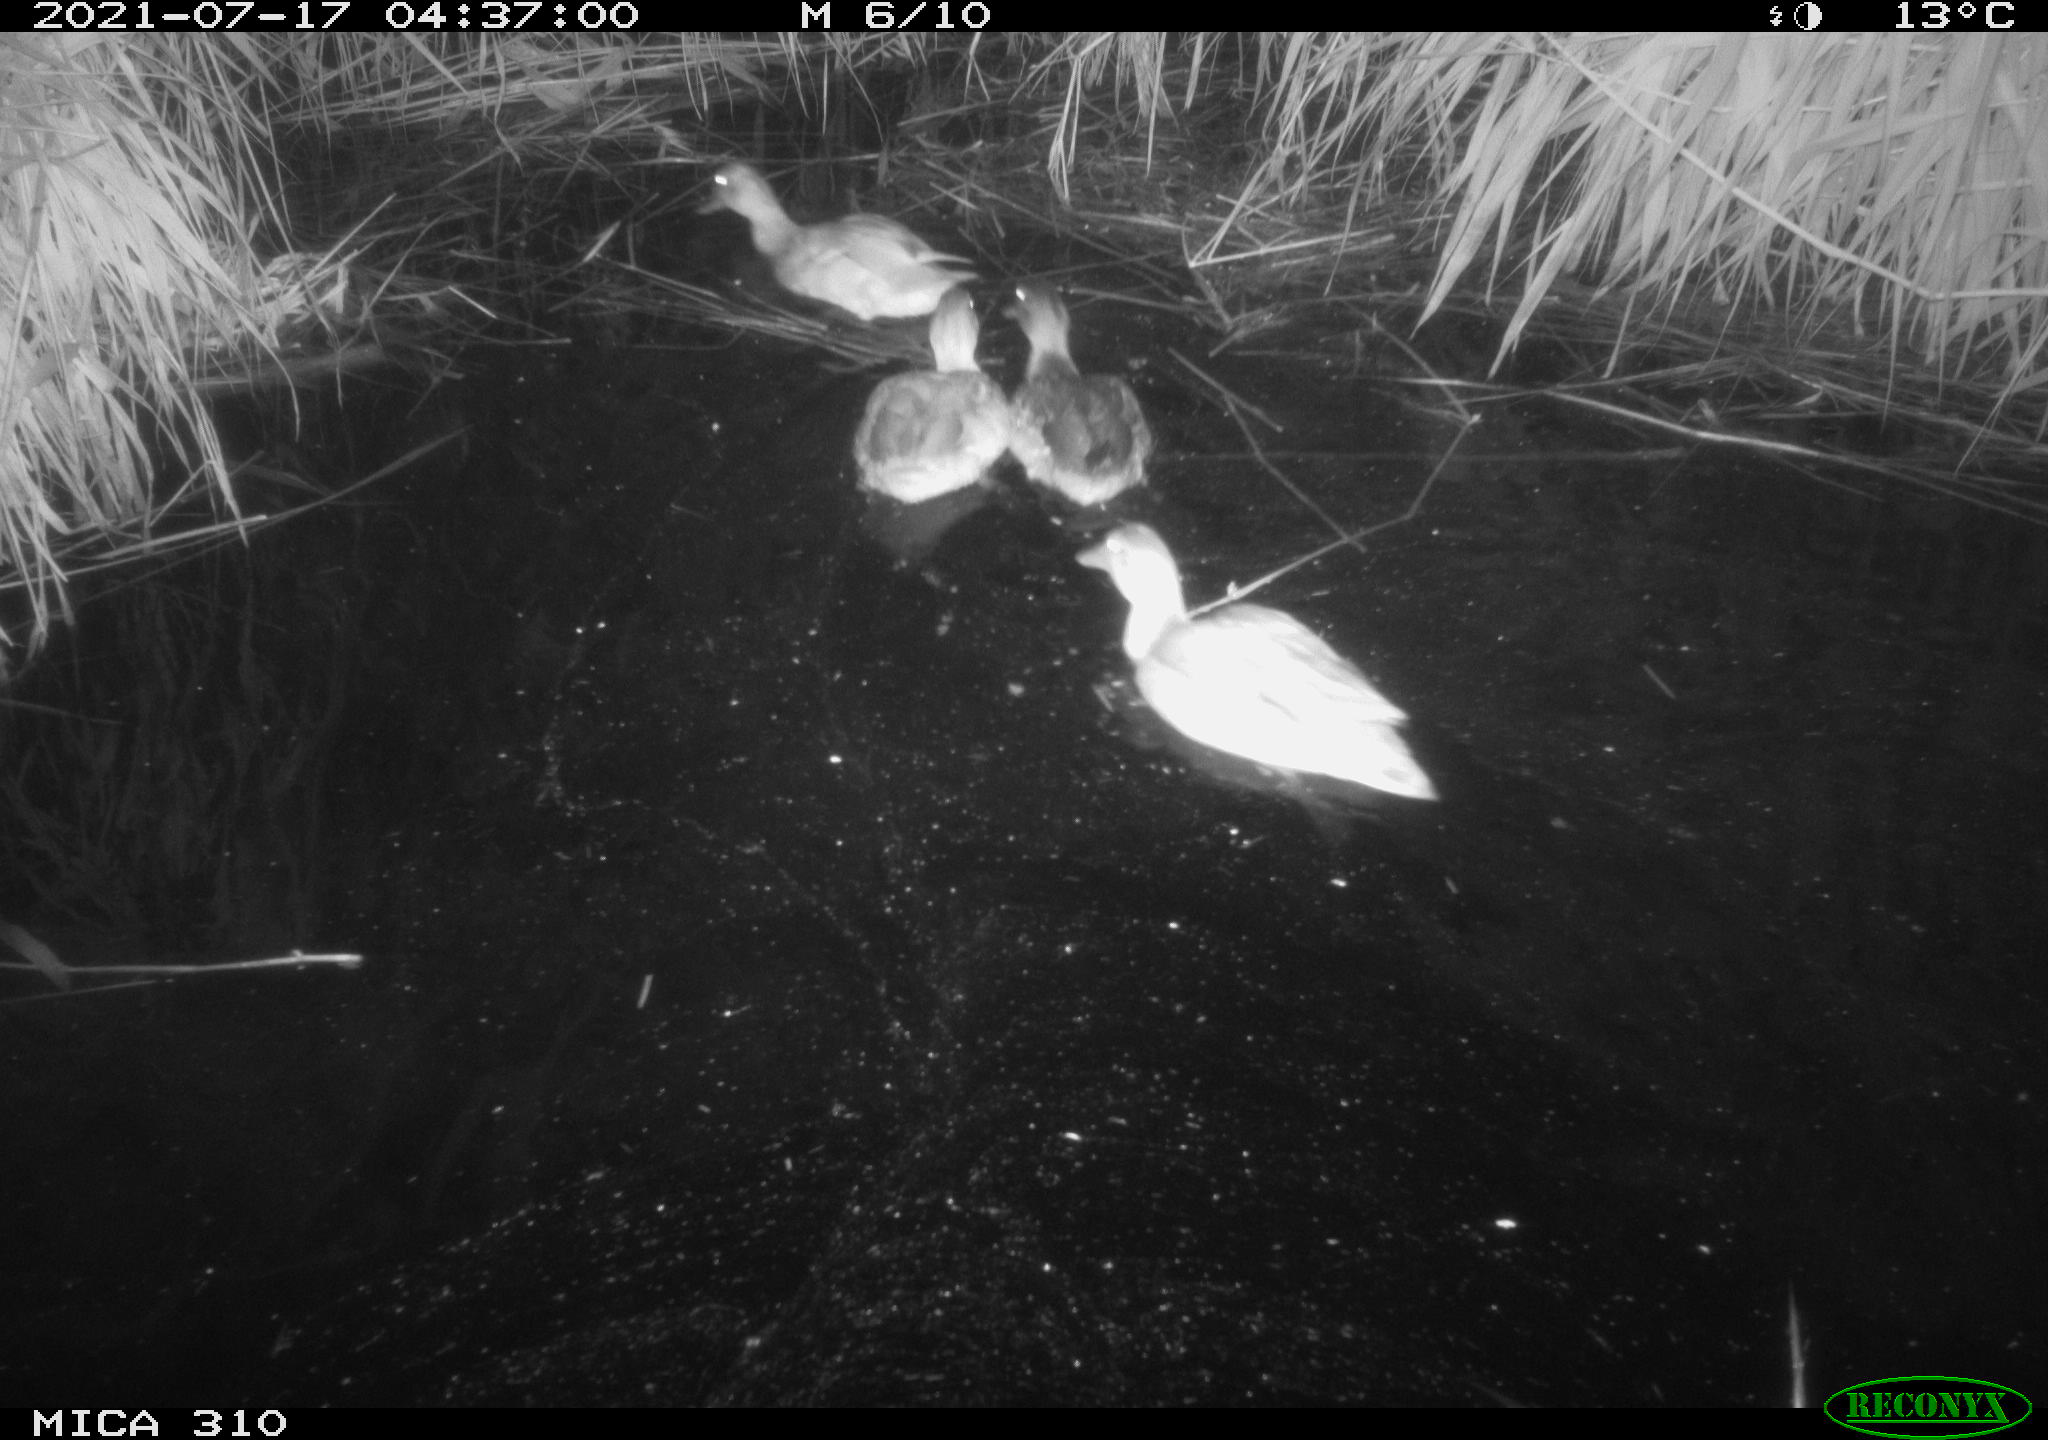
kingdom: Animalia
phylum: Chordata
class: Aves
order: Anseriformes
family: Anatidae
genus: Anas
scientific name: Anas platyrhynchos
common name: Mallard
